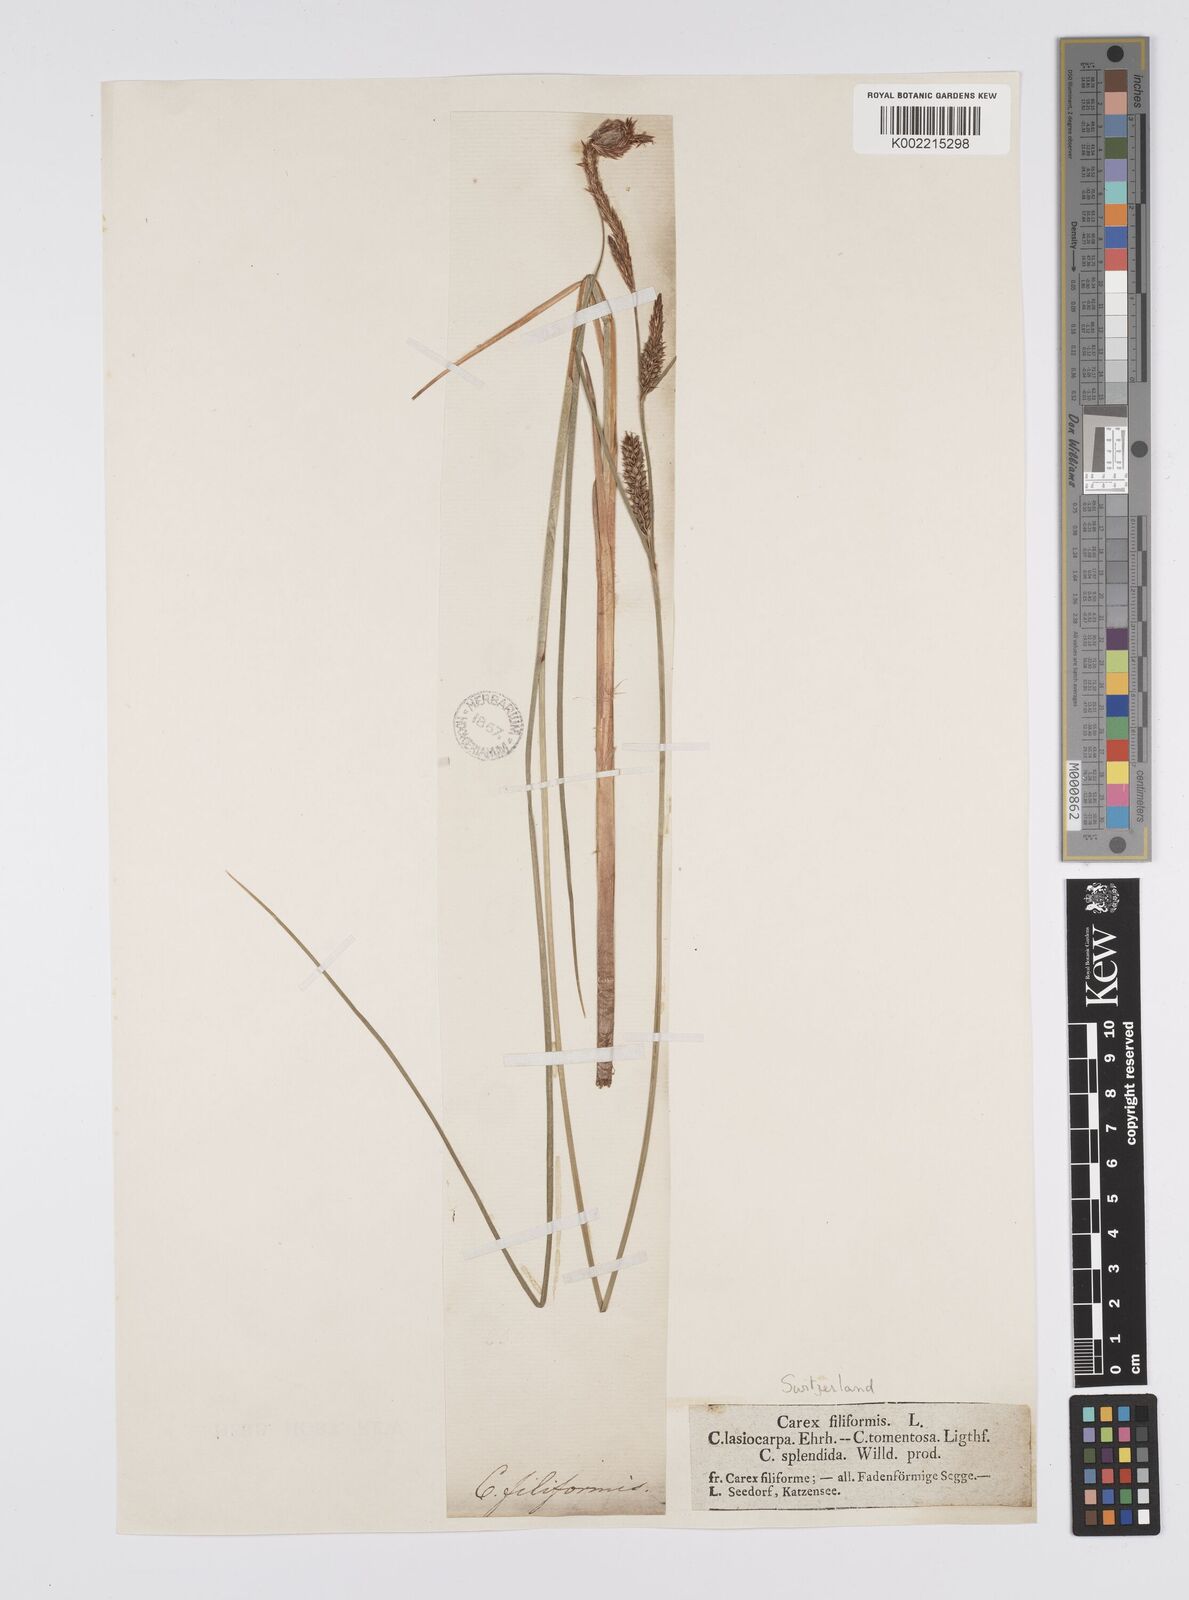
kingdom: Plantae
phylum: Tracheophyta
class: Liliopsida
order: Poales
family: Cyperaceae
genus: Carex
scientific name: Carex lasiocarpa
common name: Slender sedge
